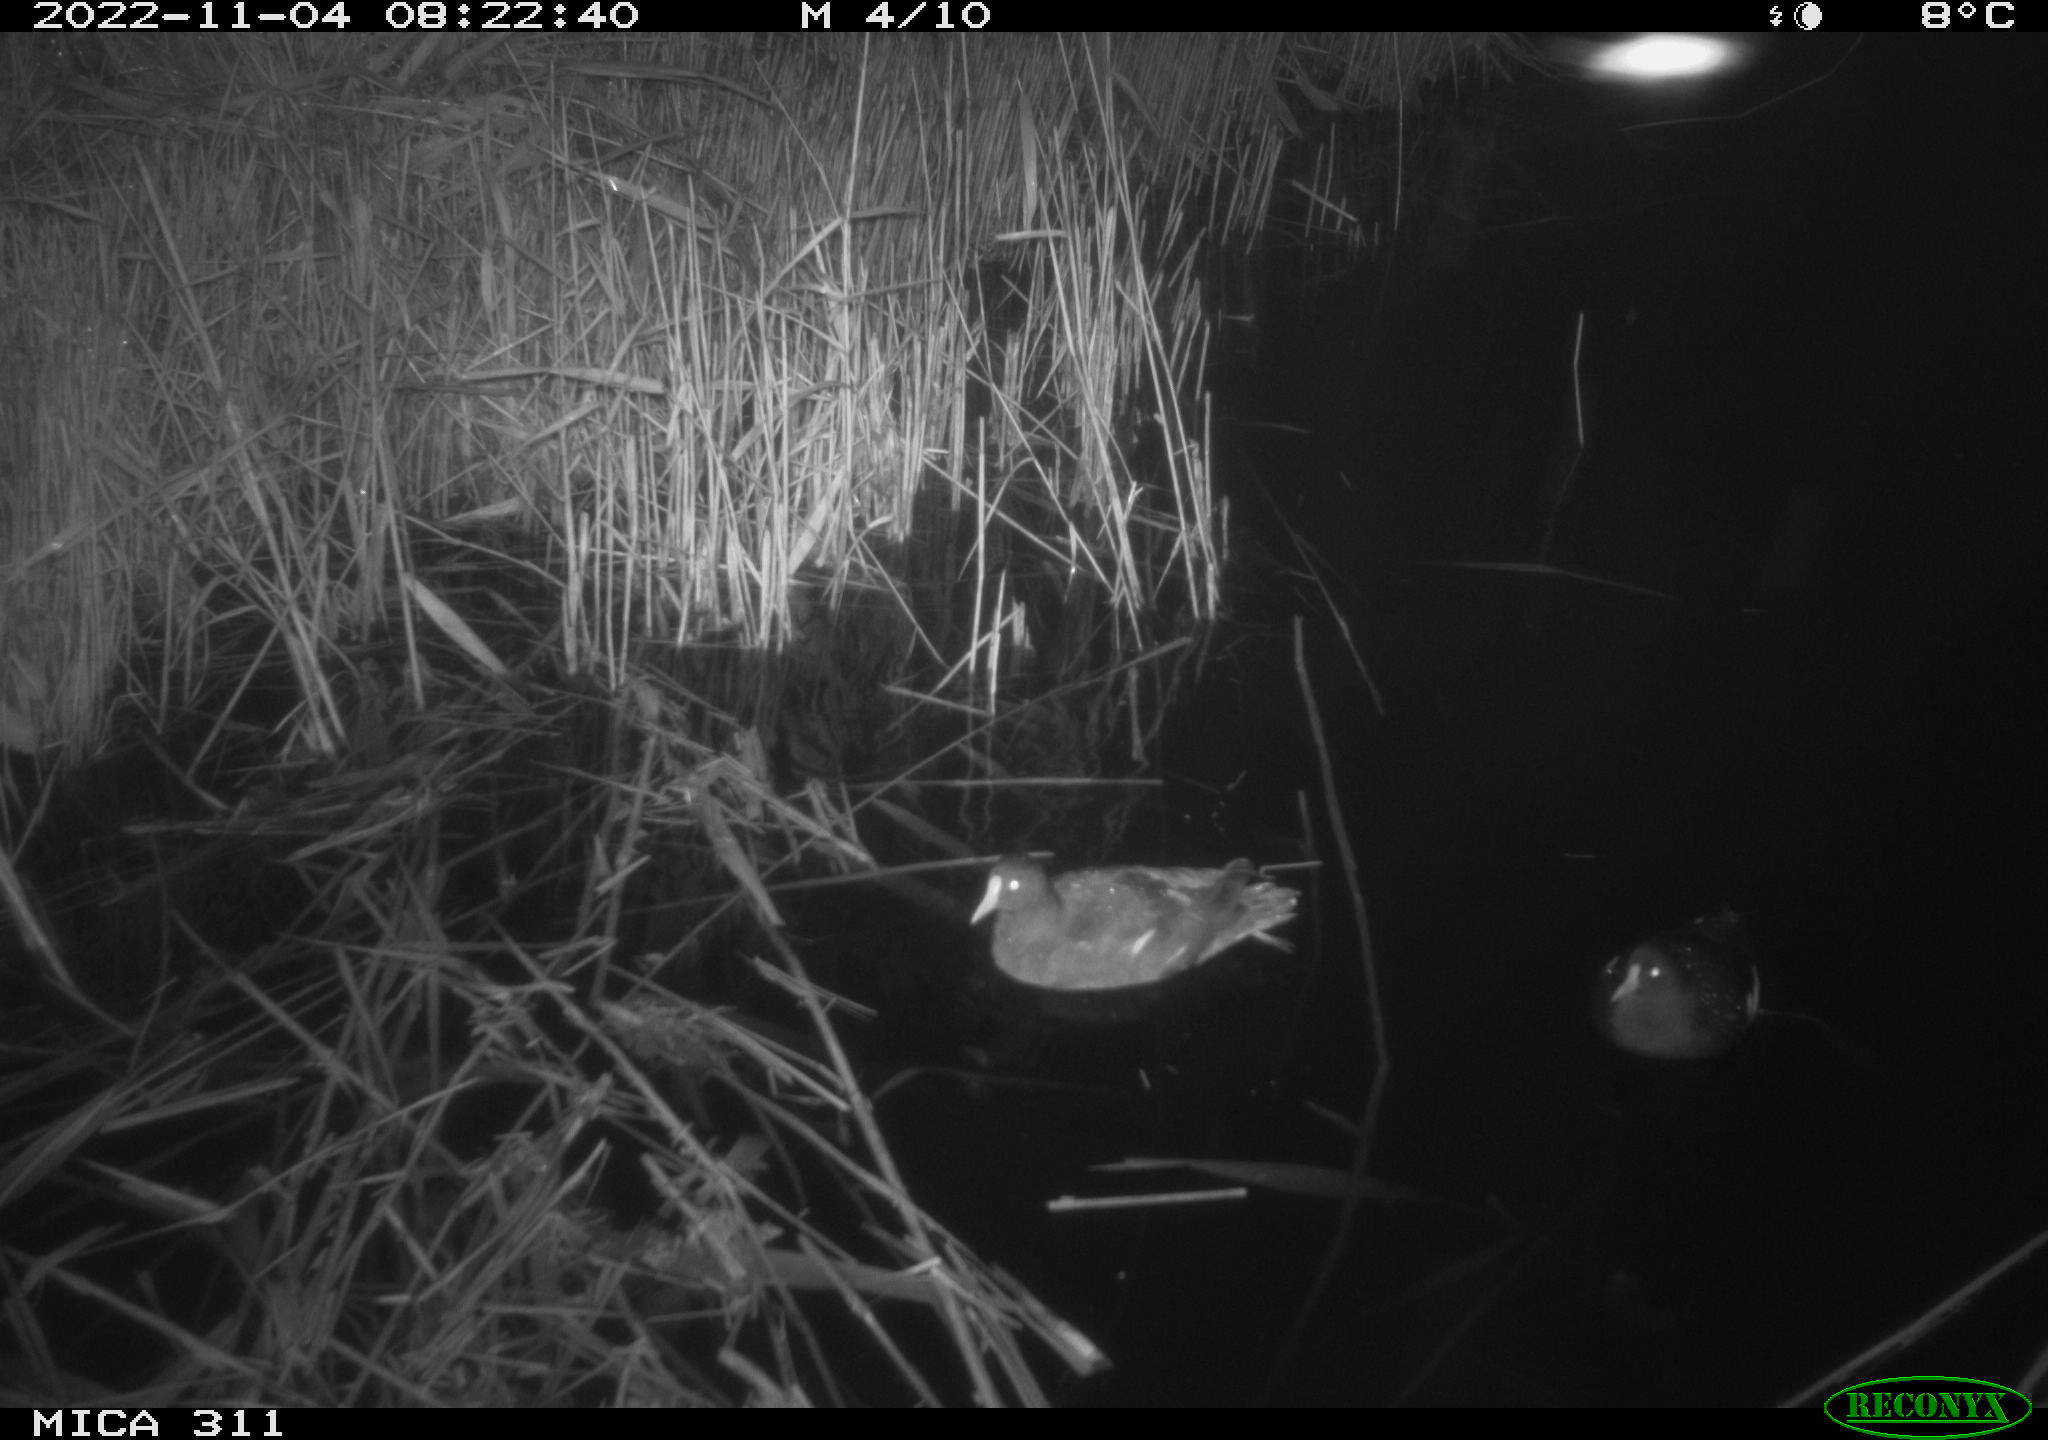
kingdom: Animalia
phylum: Chordata
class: Aves
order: Anseriformes
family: Anatidae
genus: Anas
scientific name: Anas
